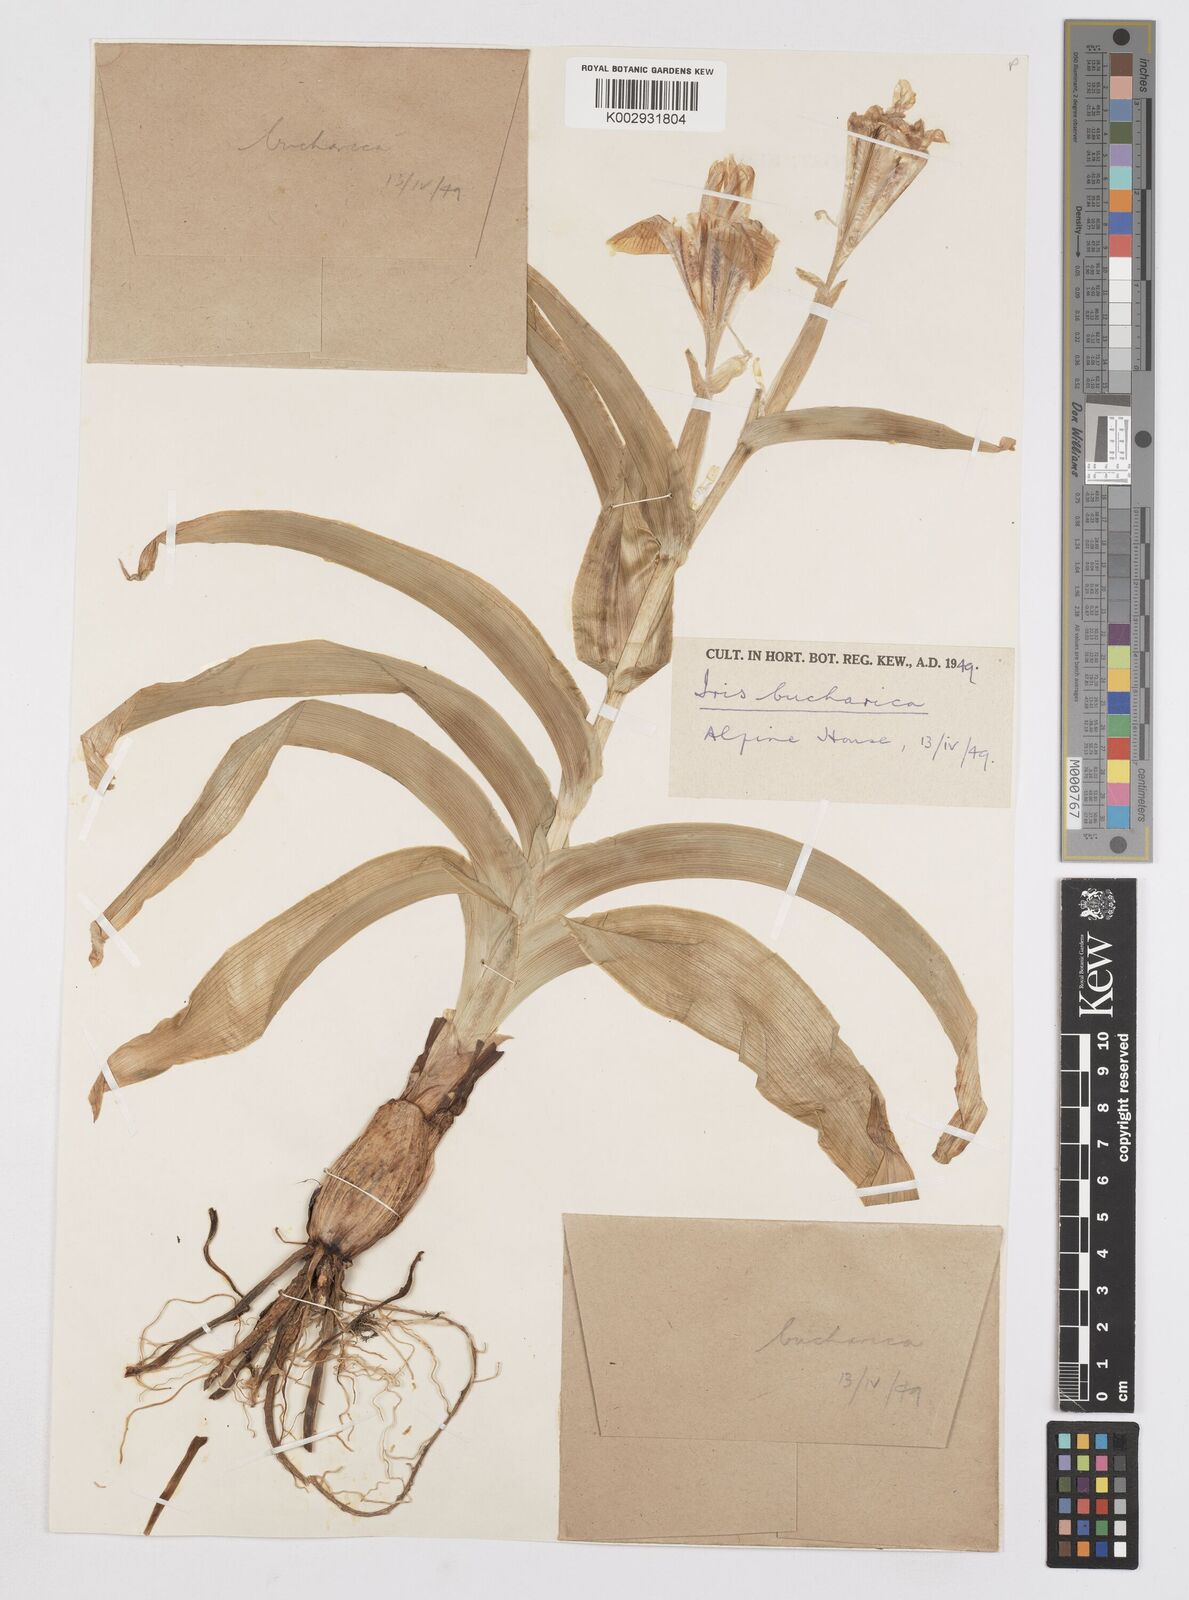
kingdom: Plantae
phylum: Tracheophyta
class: Liliopsida
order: Asparagales
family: Iridaceae
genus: Iris
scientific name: Iris bucharica
